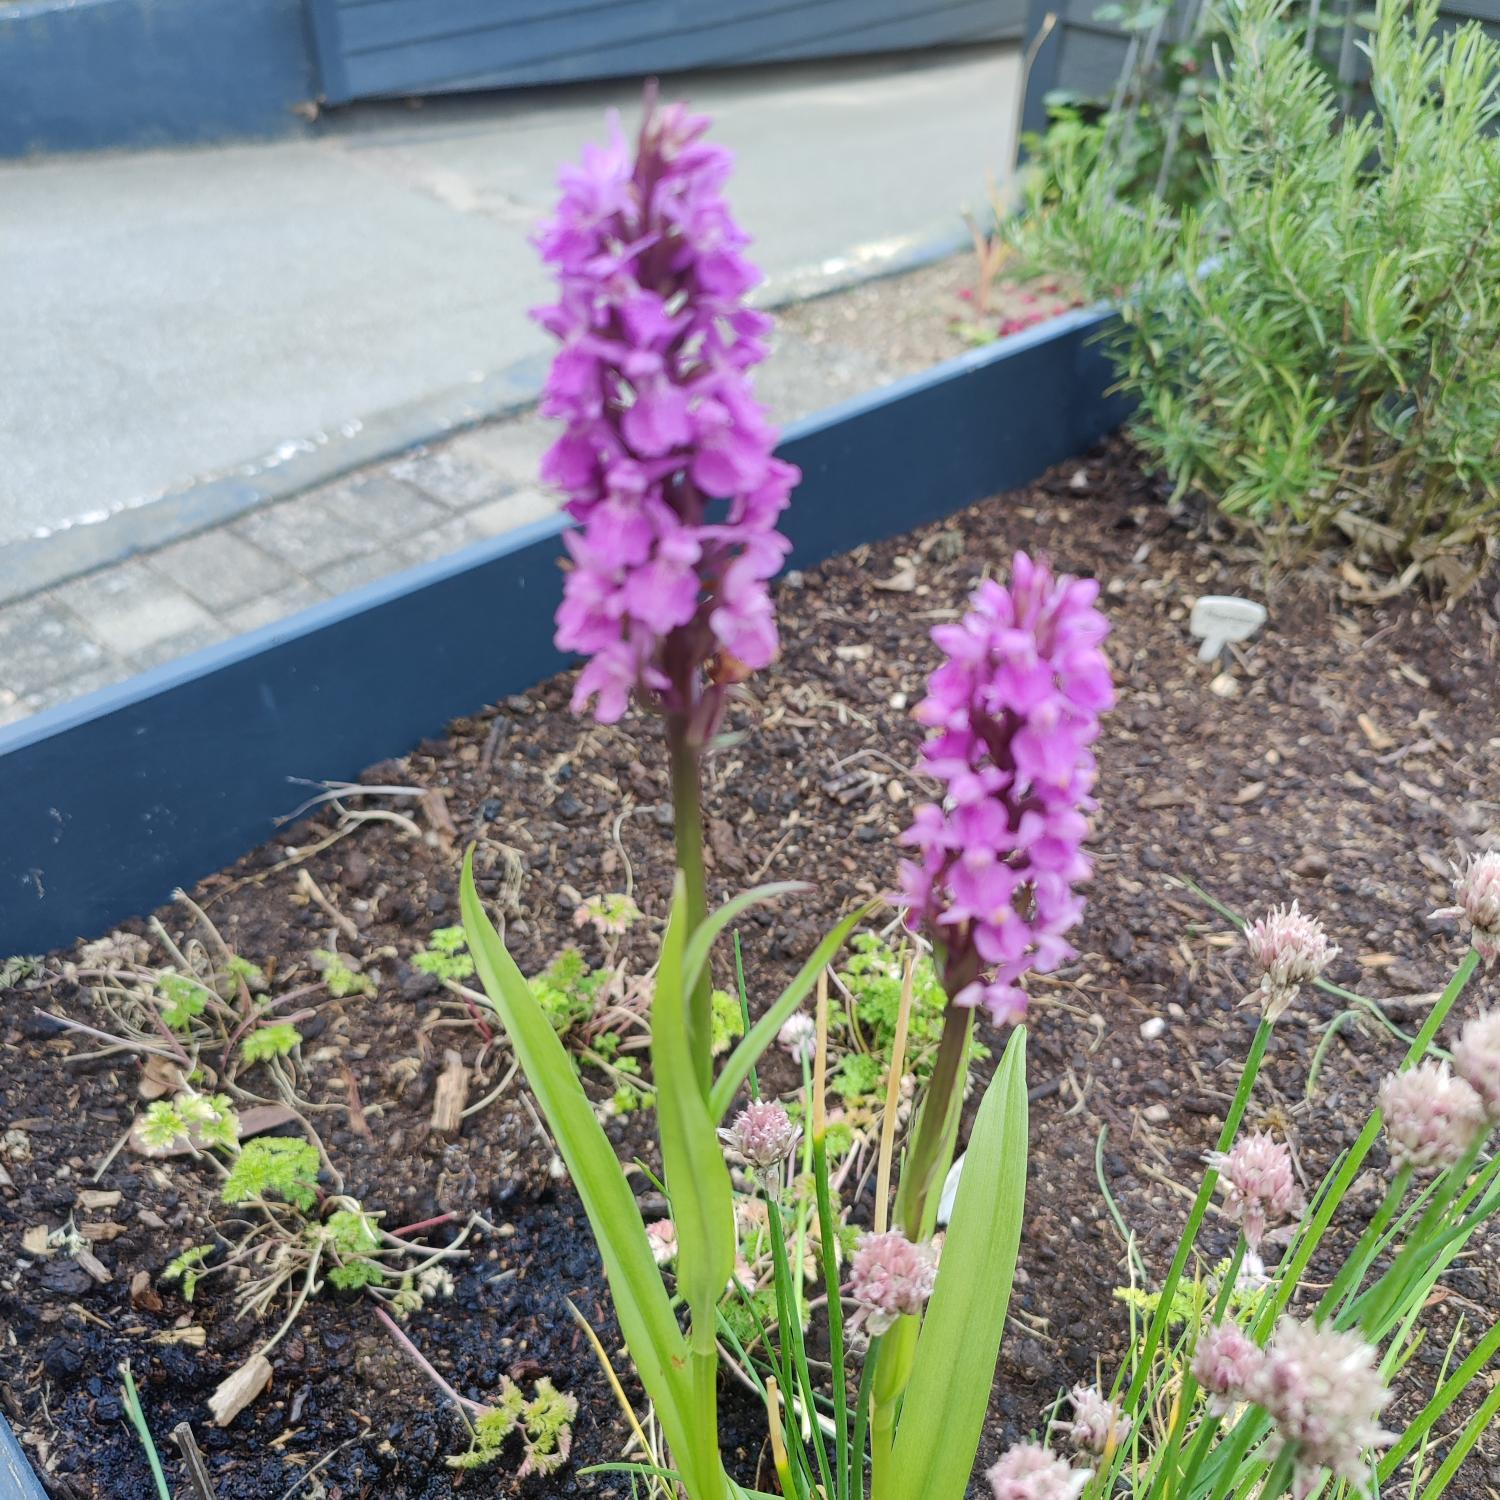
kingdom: Plantae
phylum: Tracheophyta
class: Liliopsida
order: Asparagales
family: Orchidaceae
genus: Dactylorhiza
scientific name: Dactylorhiza majalis
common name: Maj-gøgeurt
